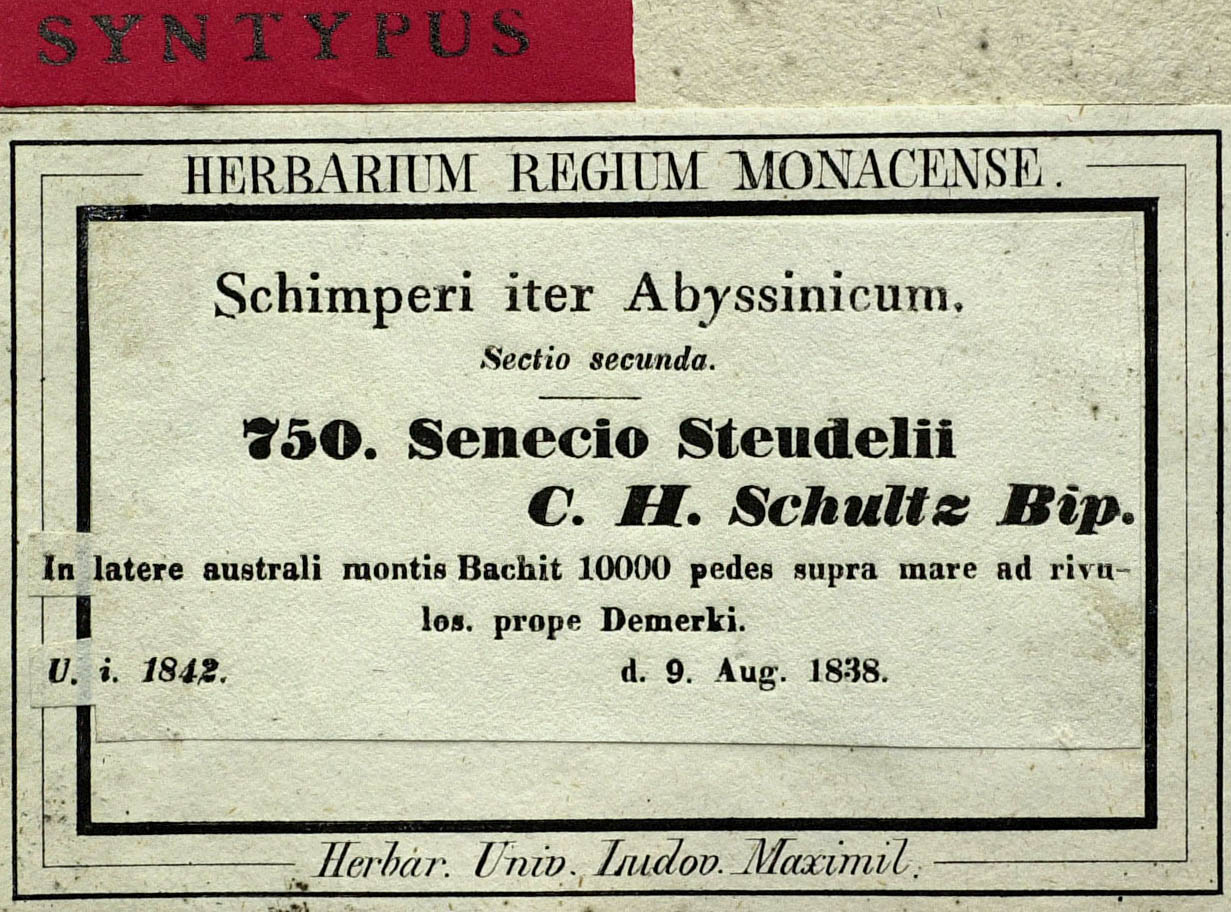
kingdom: Plantae
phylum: Tracheophyta
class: Magnoliopsida
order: Asterales
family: Asteraceae
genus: Senecio
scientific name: Senecio steudelii
